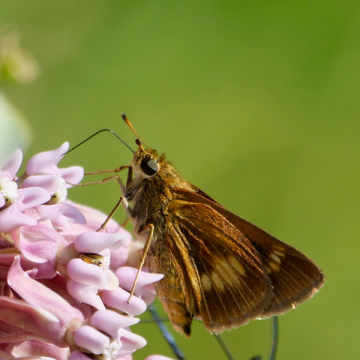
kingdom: Animalia
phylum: Arthropoda
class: Insecta
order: Lepidoptera
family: Hesperiidae
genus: Euphyes
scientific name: Euphyes conspicua
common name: Black Dash
